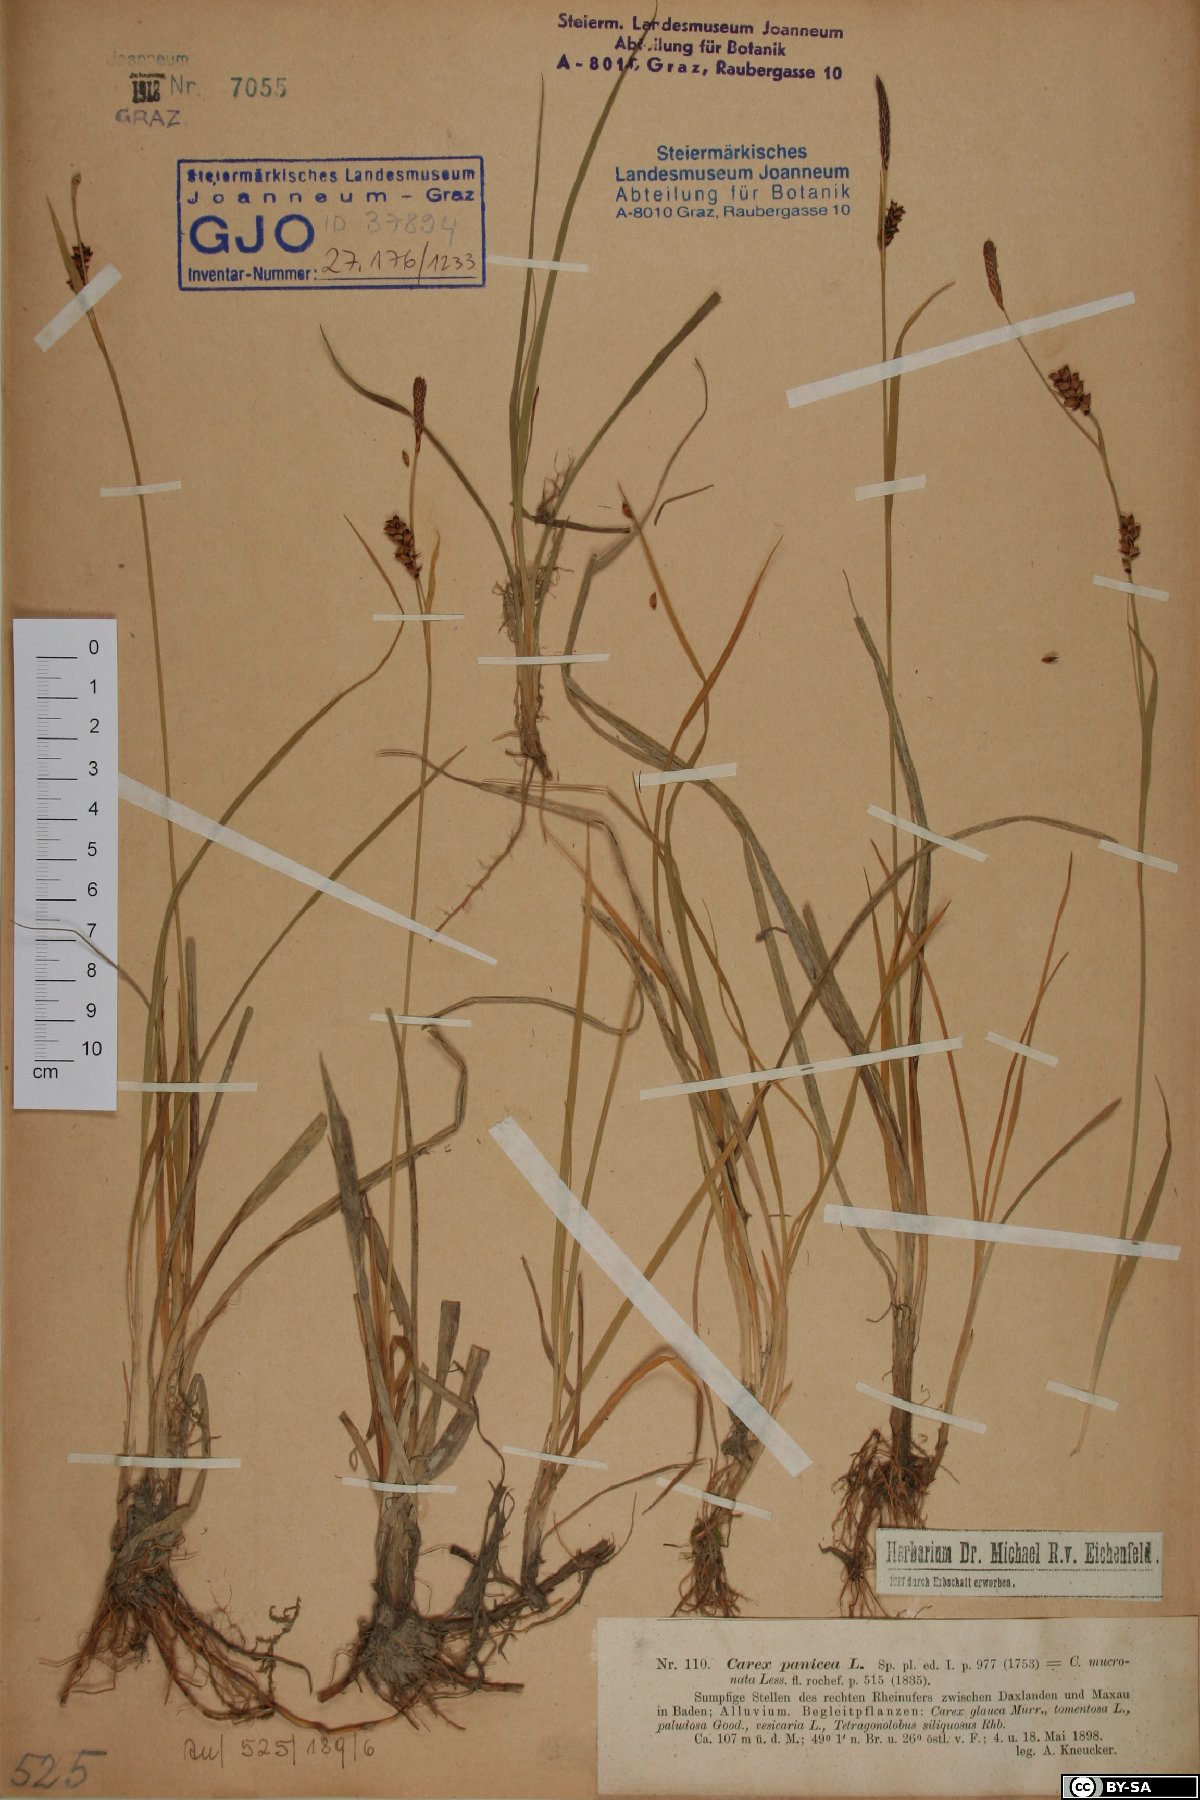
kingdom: Plantae
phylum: Tracheophyta
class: Liliopsida
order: Poales
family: Cyperaceae
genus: Carex
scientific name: Carex panicea
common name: Carnation sedge
